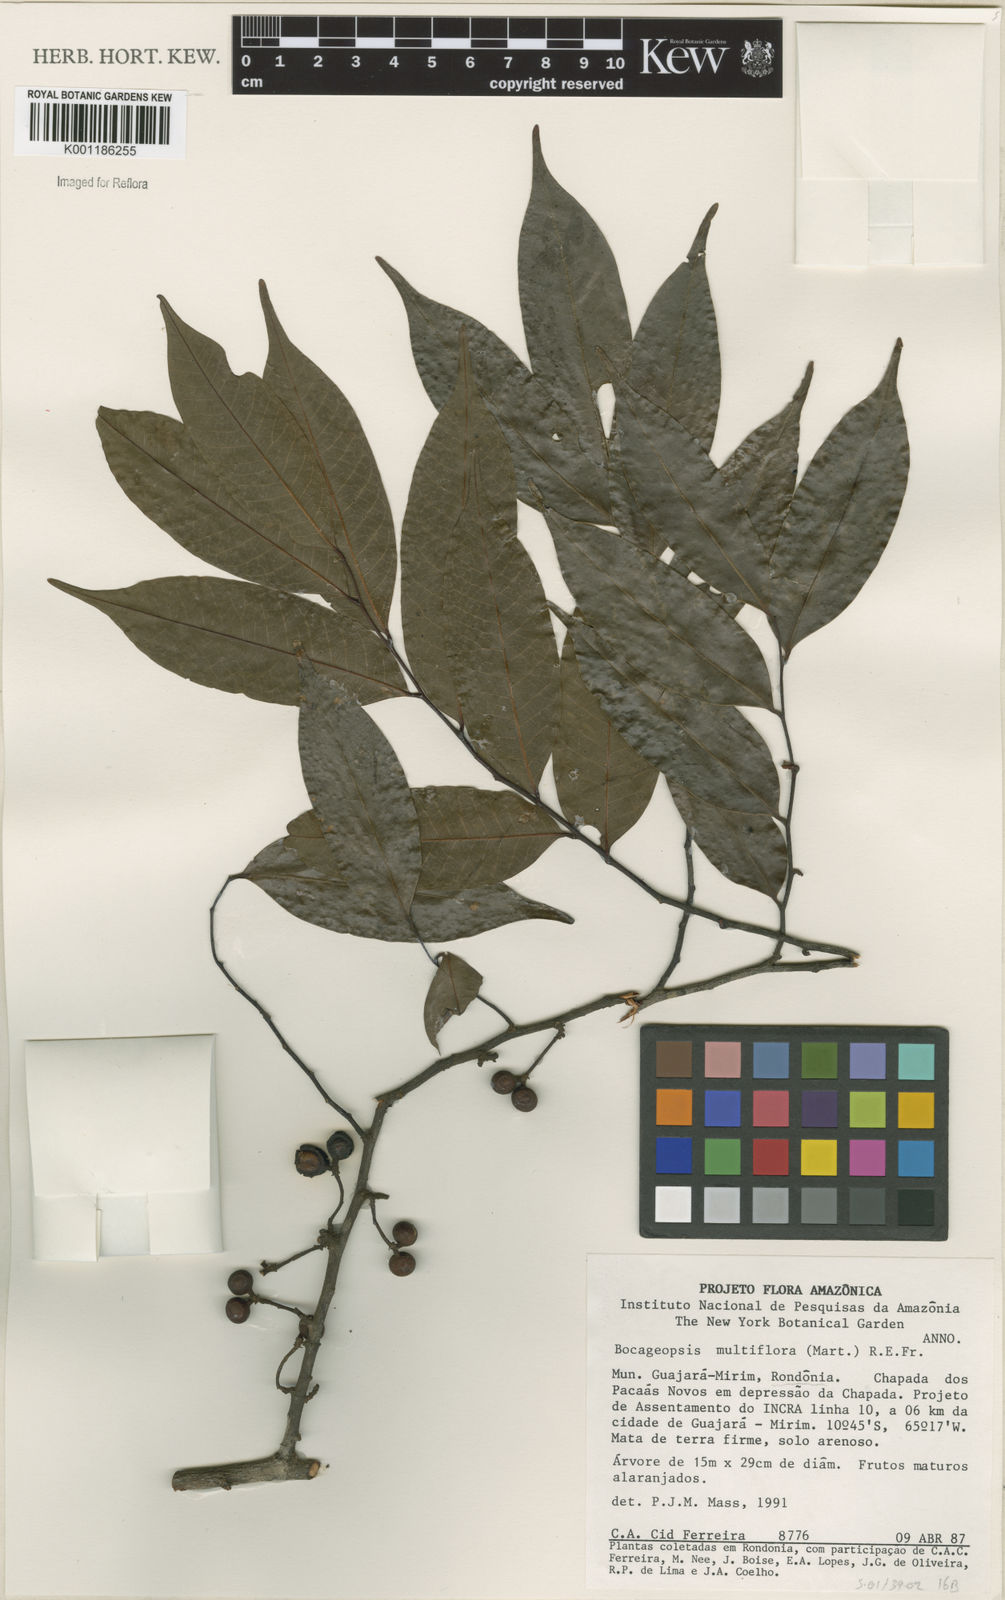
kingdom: Plantae
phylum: Tracheophyta
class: Magnoliopsida
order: Magnoliales
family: Annonaceae
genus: Bocageopsis
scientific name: Bocageopsis multiflora
